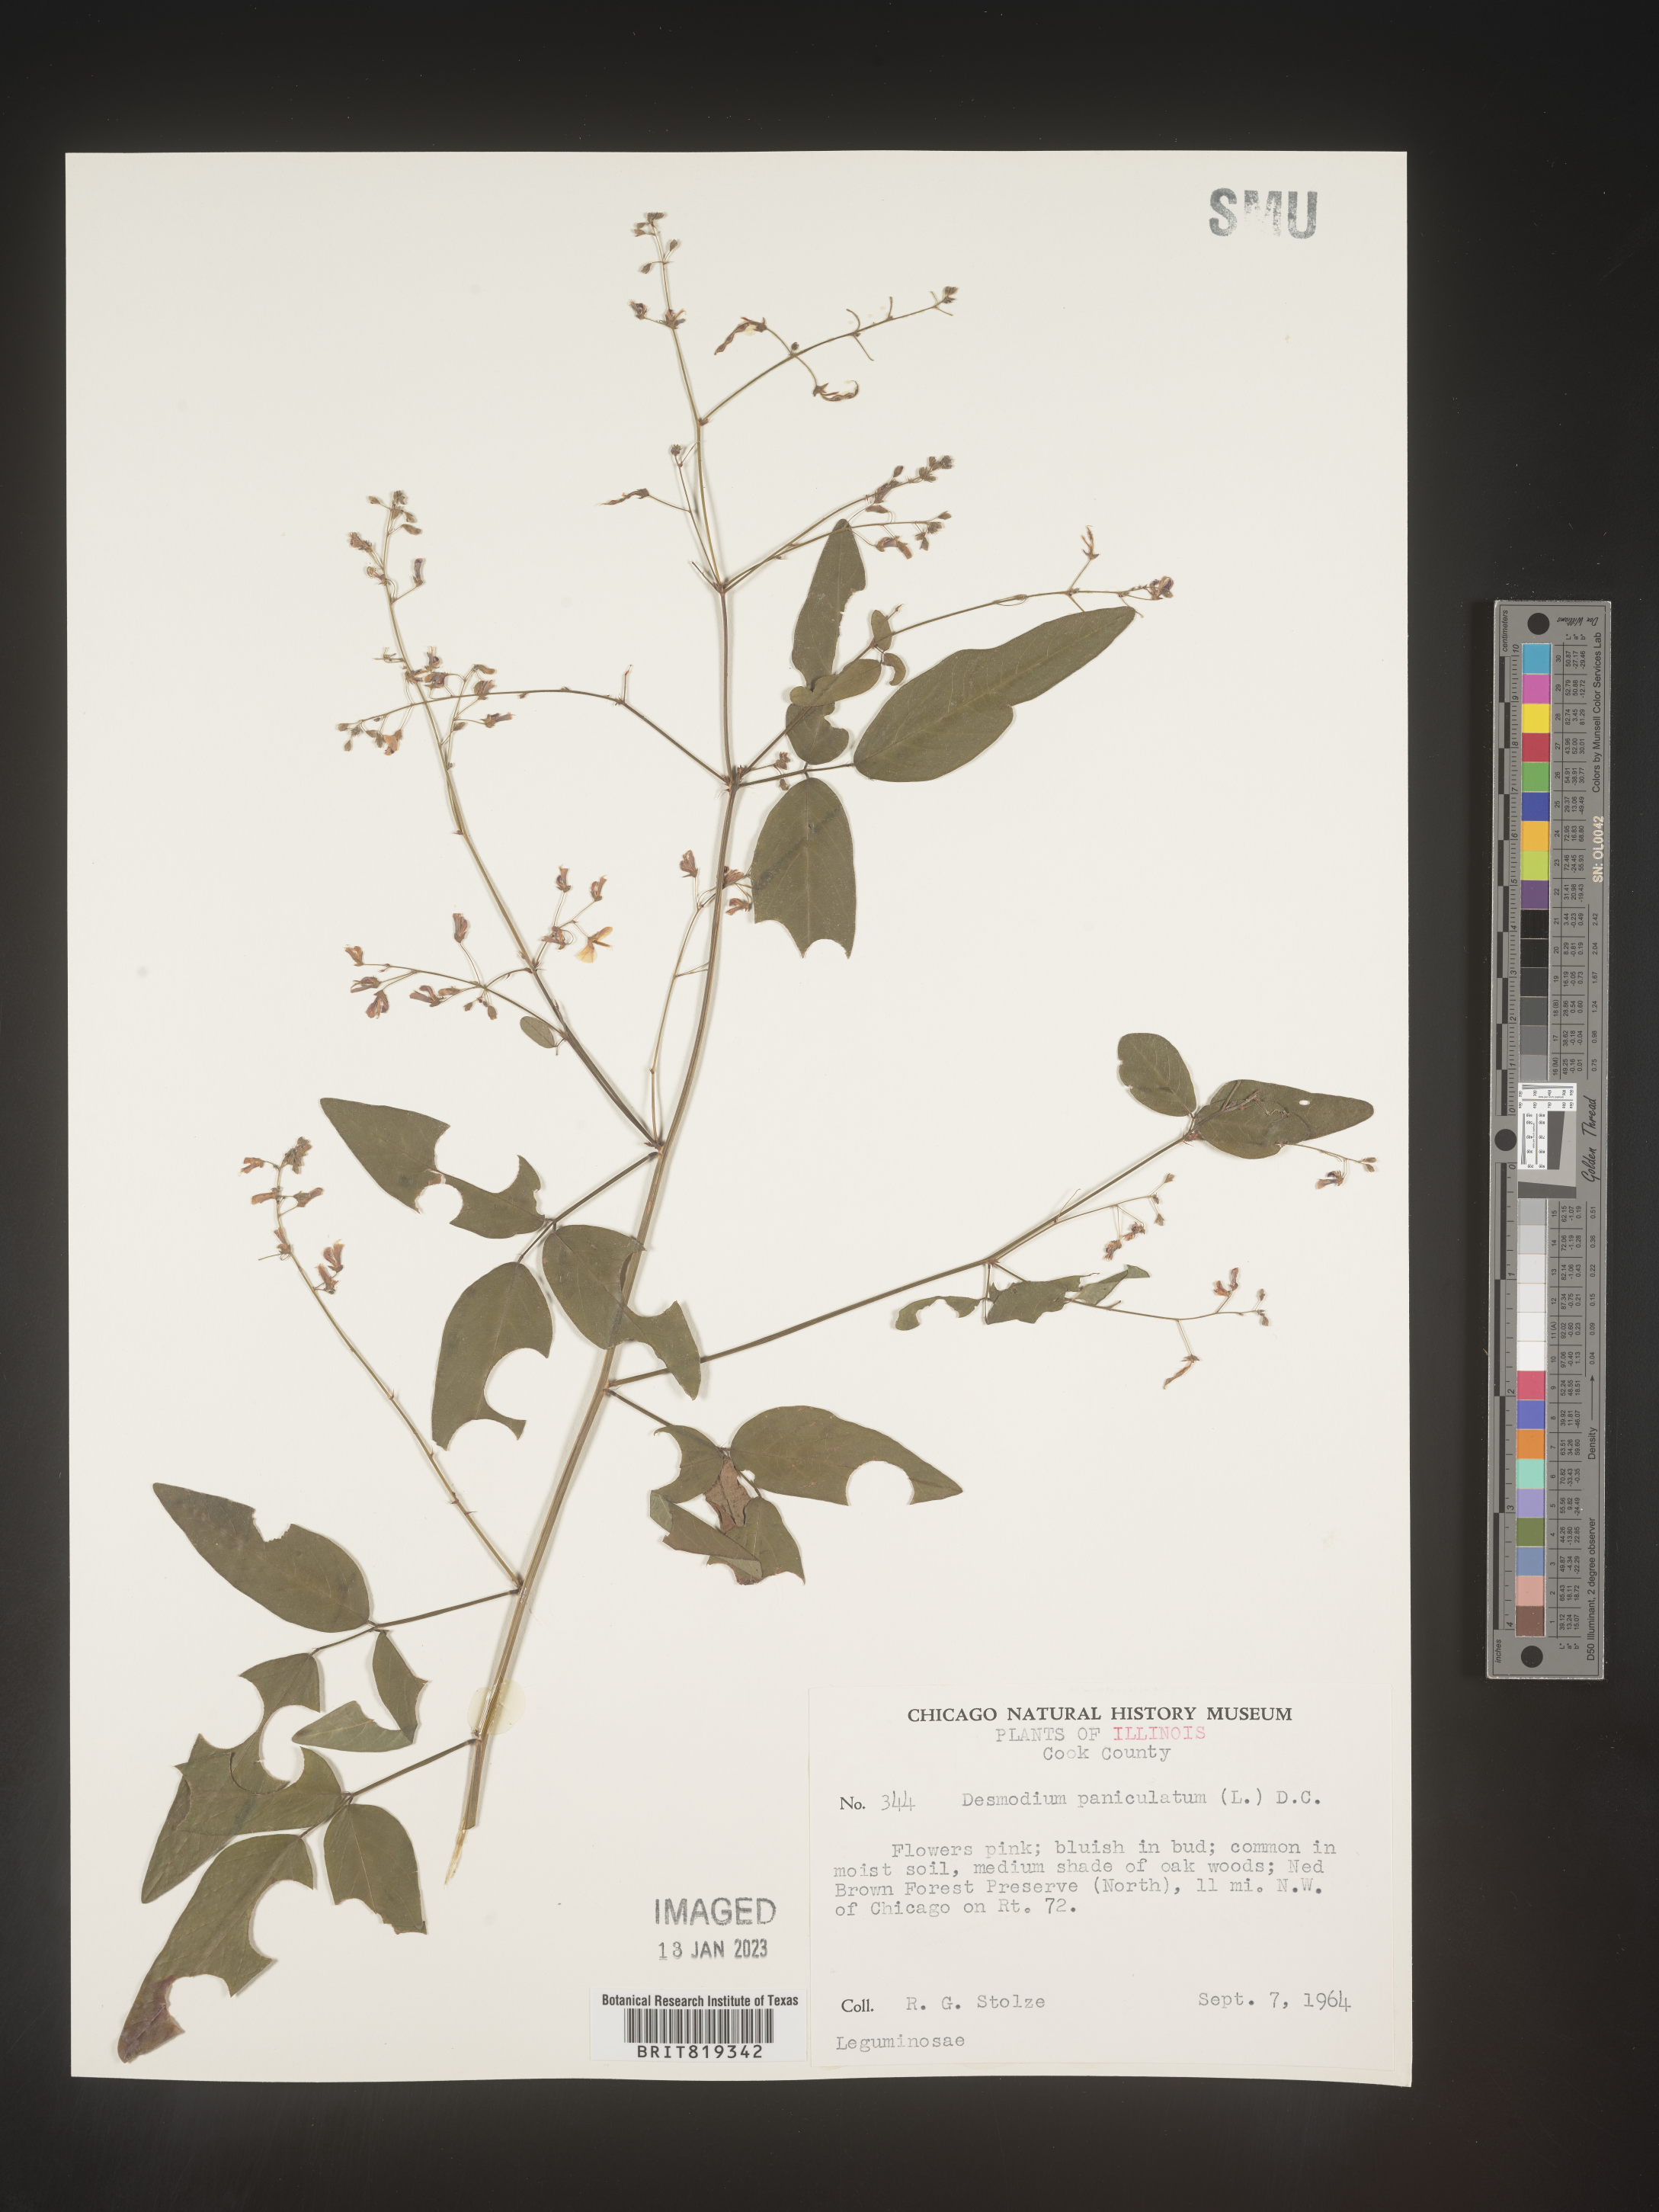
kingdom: Plantae
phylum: Tracheophyta
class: Magnoliopsida
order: Fabales
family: Fabaceae
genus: Desmodium
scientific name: Desmodium paniculatum
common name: Panicled tick-clover
